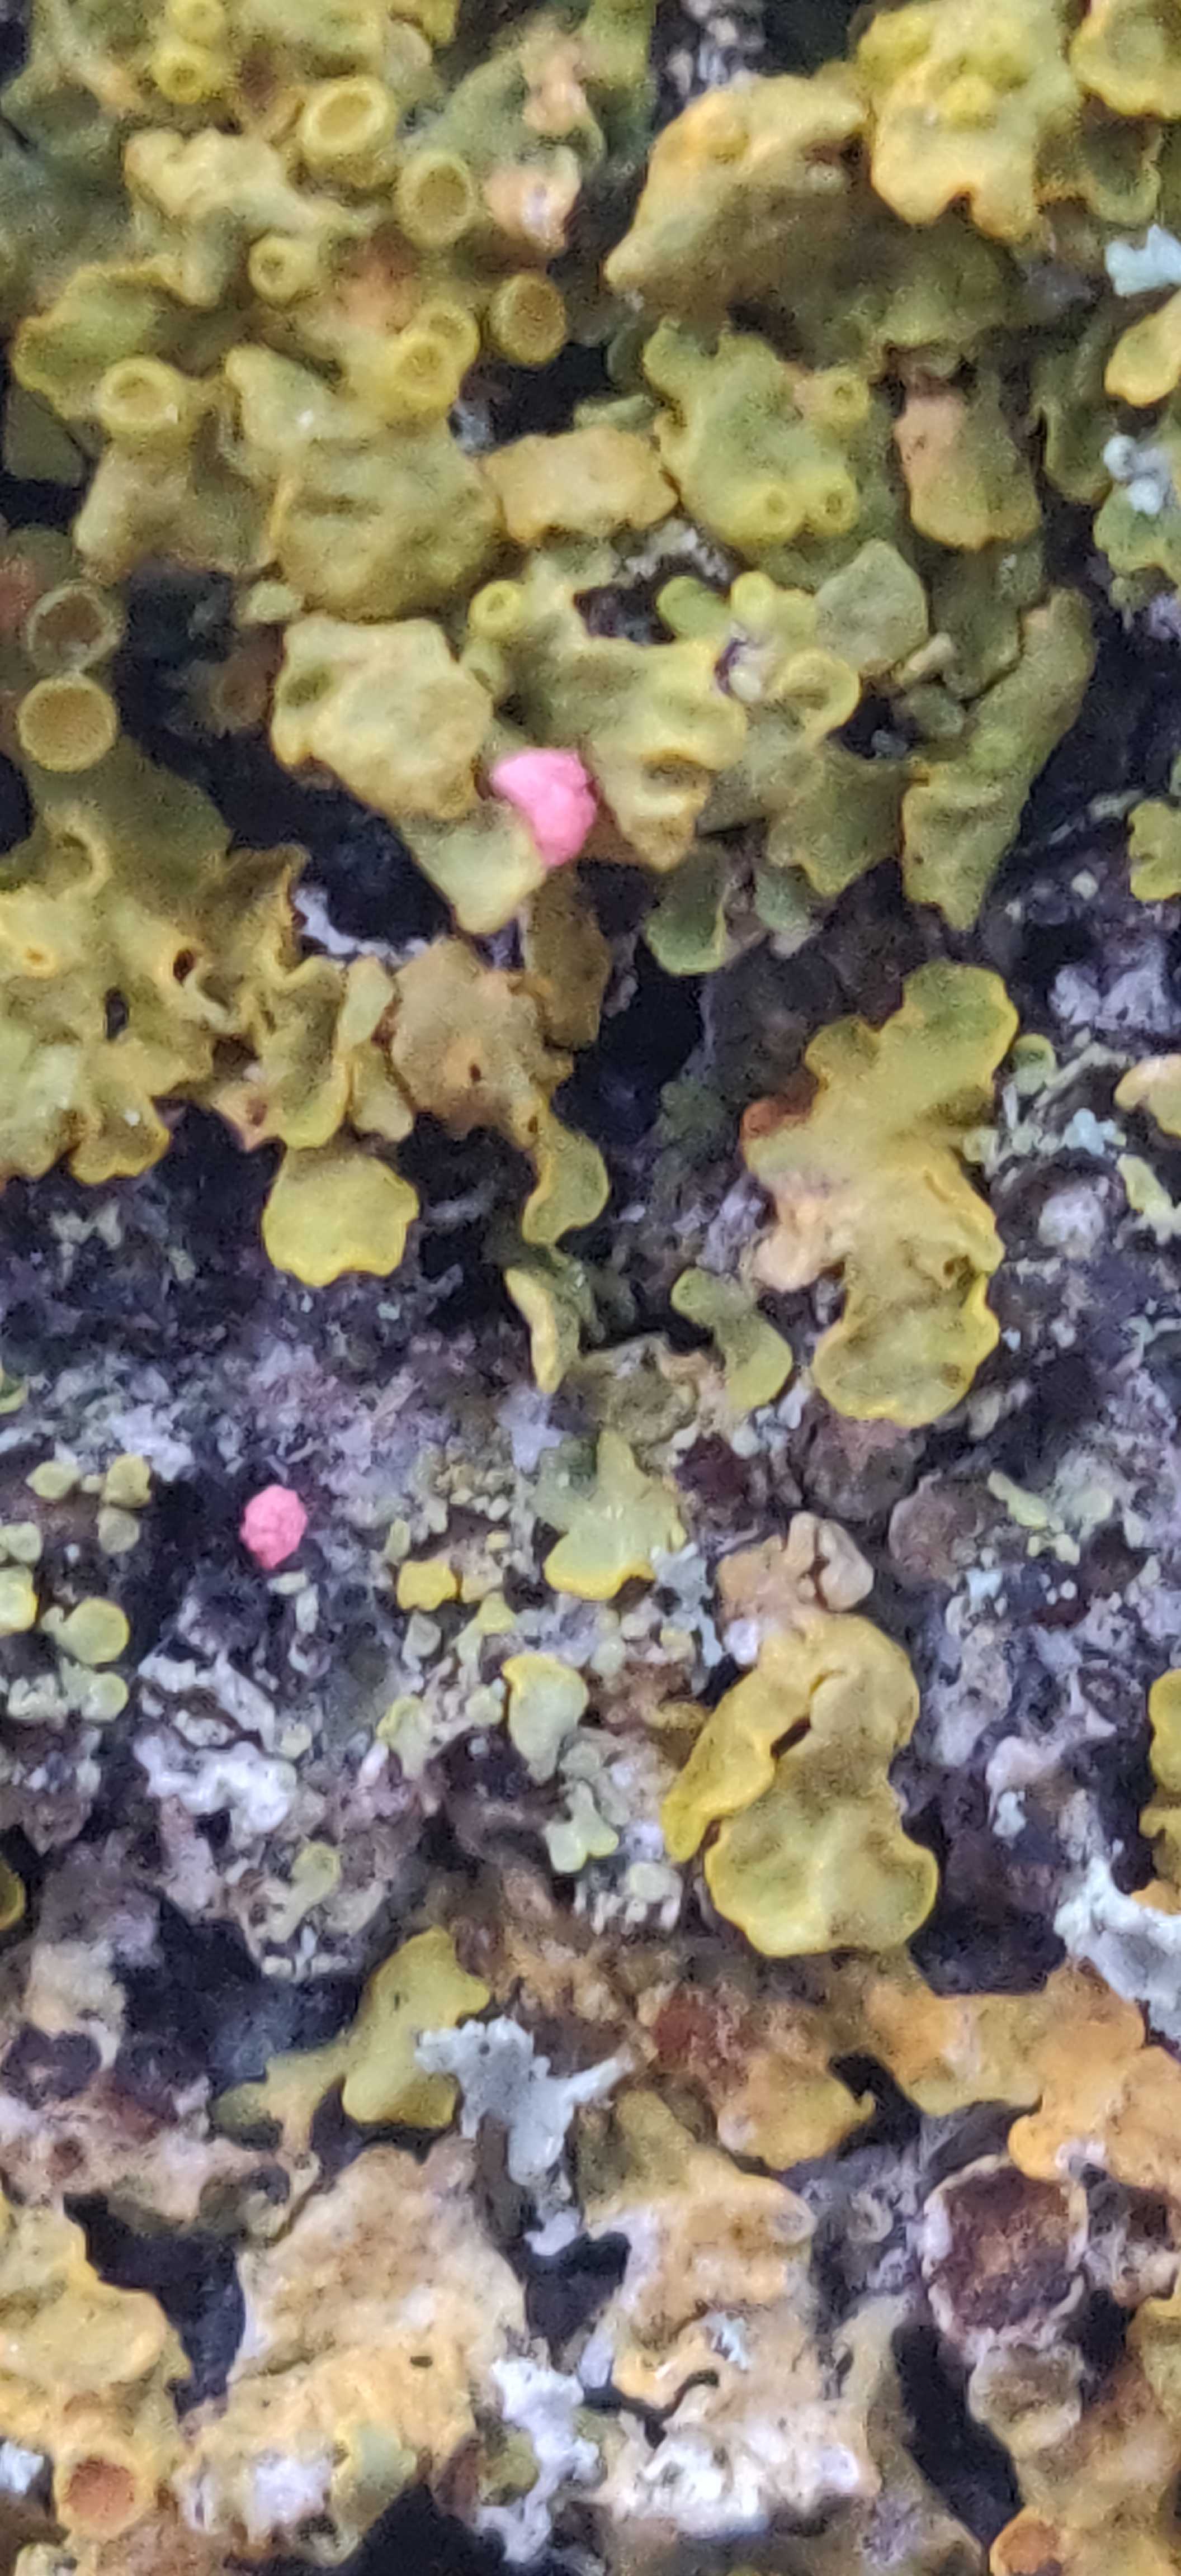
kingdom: Fungi
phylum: Ascomycota
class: Sordariomycetes
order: Hypocreales
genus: Illosporiopsis
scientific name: Illosporiopsis christiansenii
